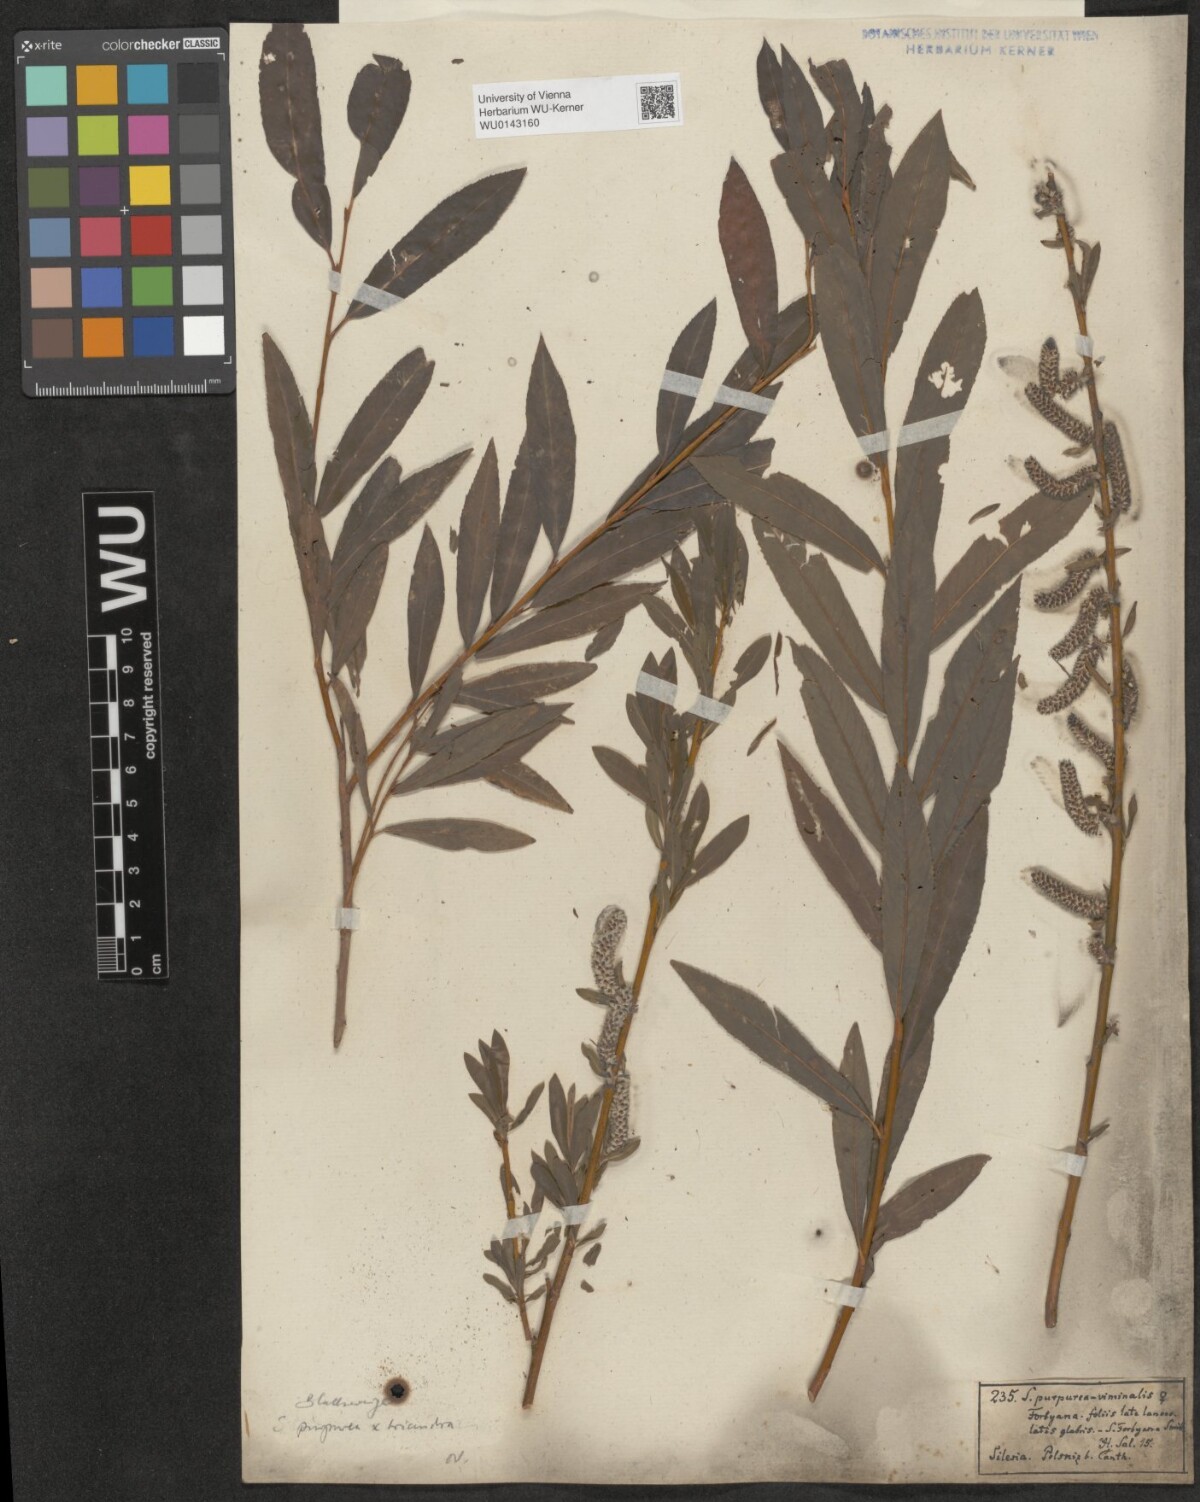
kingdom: Plantae
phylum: Tracheophyta
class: Magnoliopsida
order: Malpighiales
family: Salicaceae
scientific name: Salicaceae
